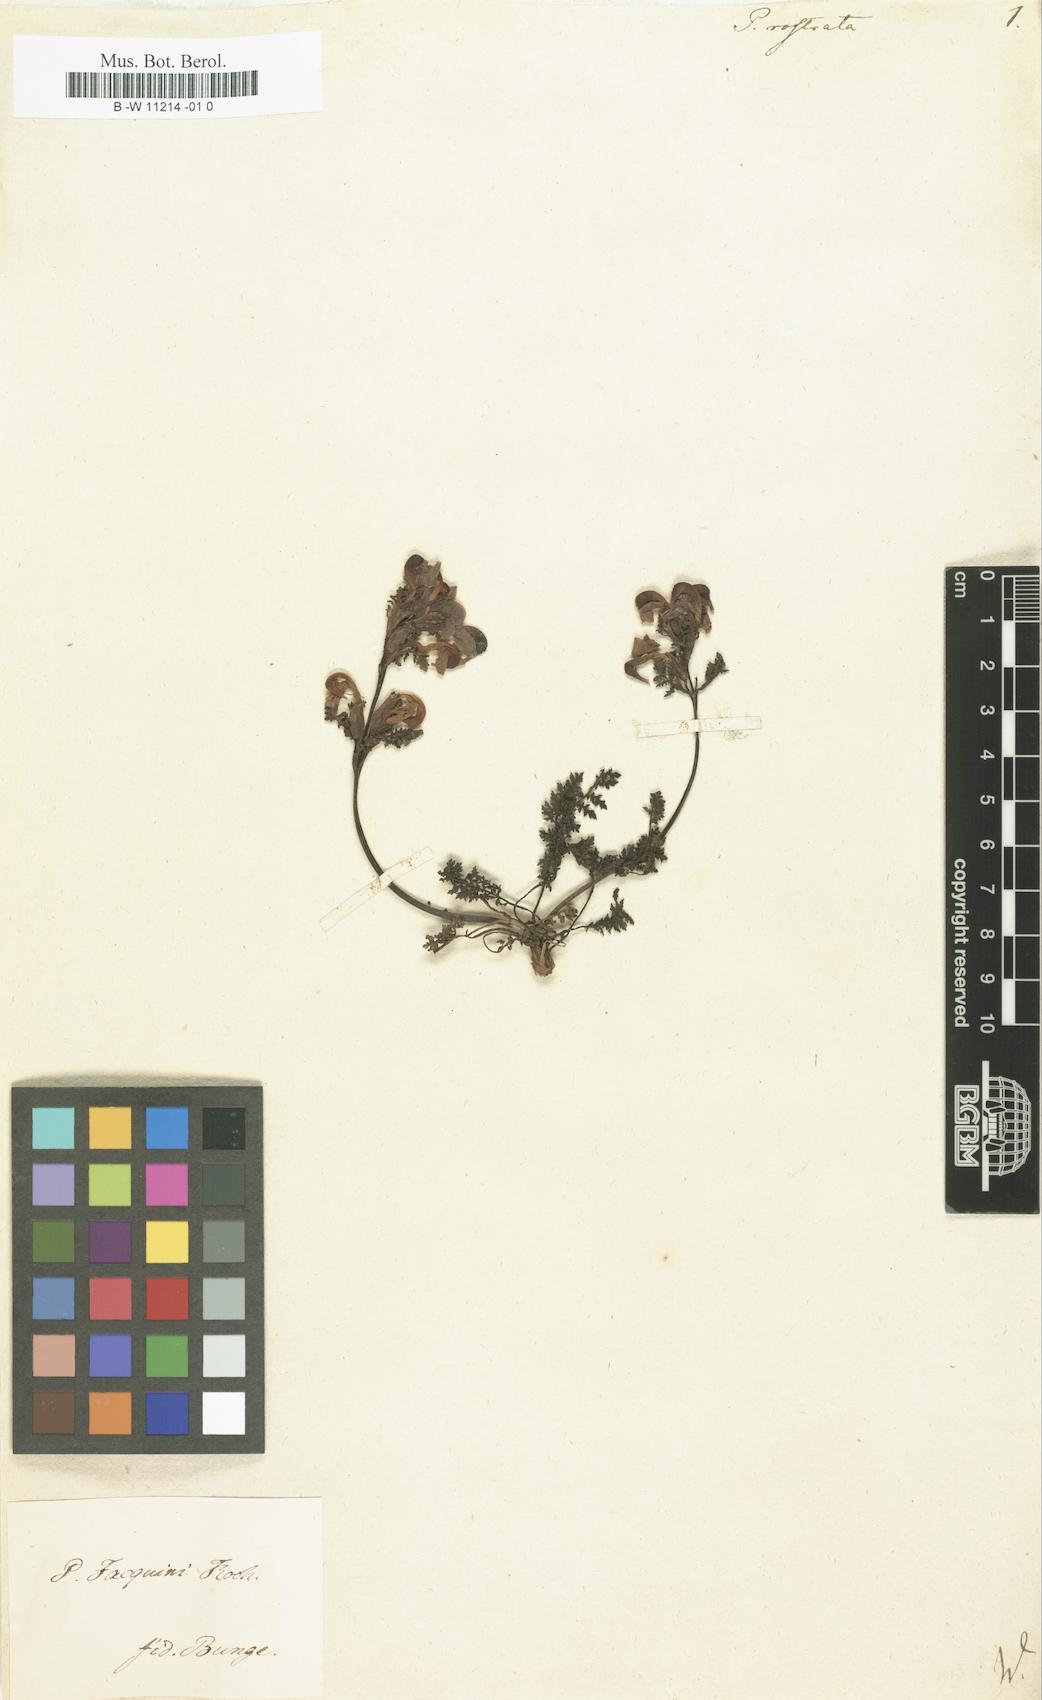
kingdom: Plantae
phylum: Tracheophyta
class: Magnoliopsida
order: Lamiales
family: Orobanchaceae
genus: Pedicularis
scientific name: Pedicularis
